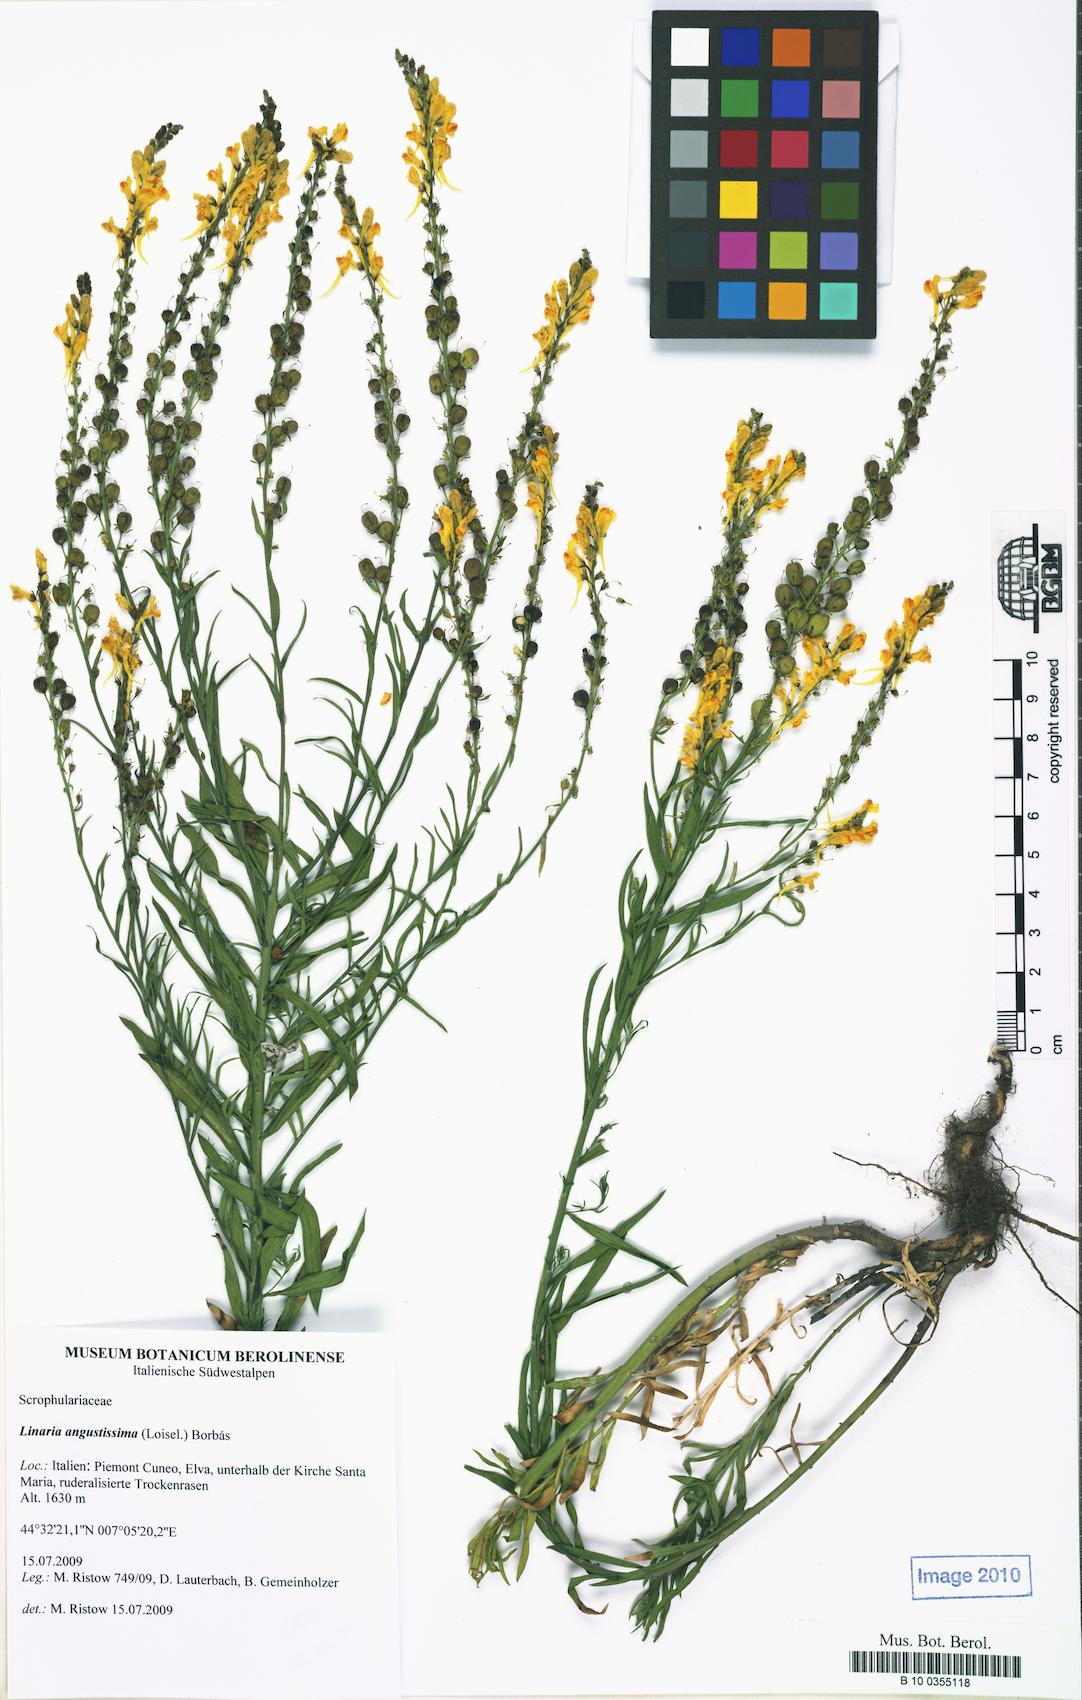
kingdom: Plantae
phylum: Tracheophyta
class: Magnoliopsida
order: Lamiales
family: Plantaginaceae
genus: Linaria
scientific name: Linaria angustissima
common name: Italian toadflax
